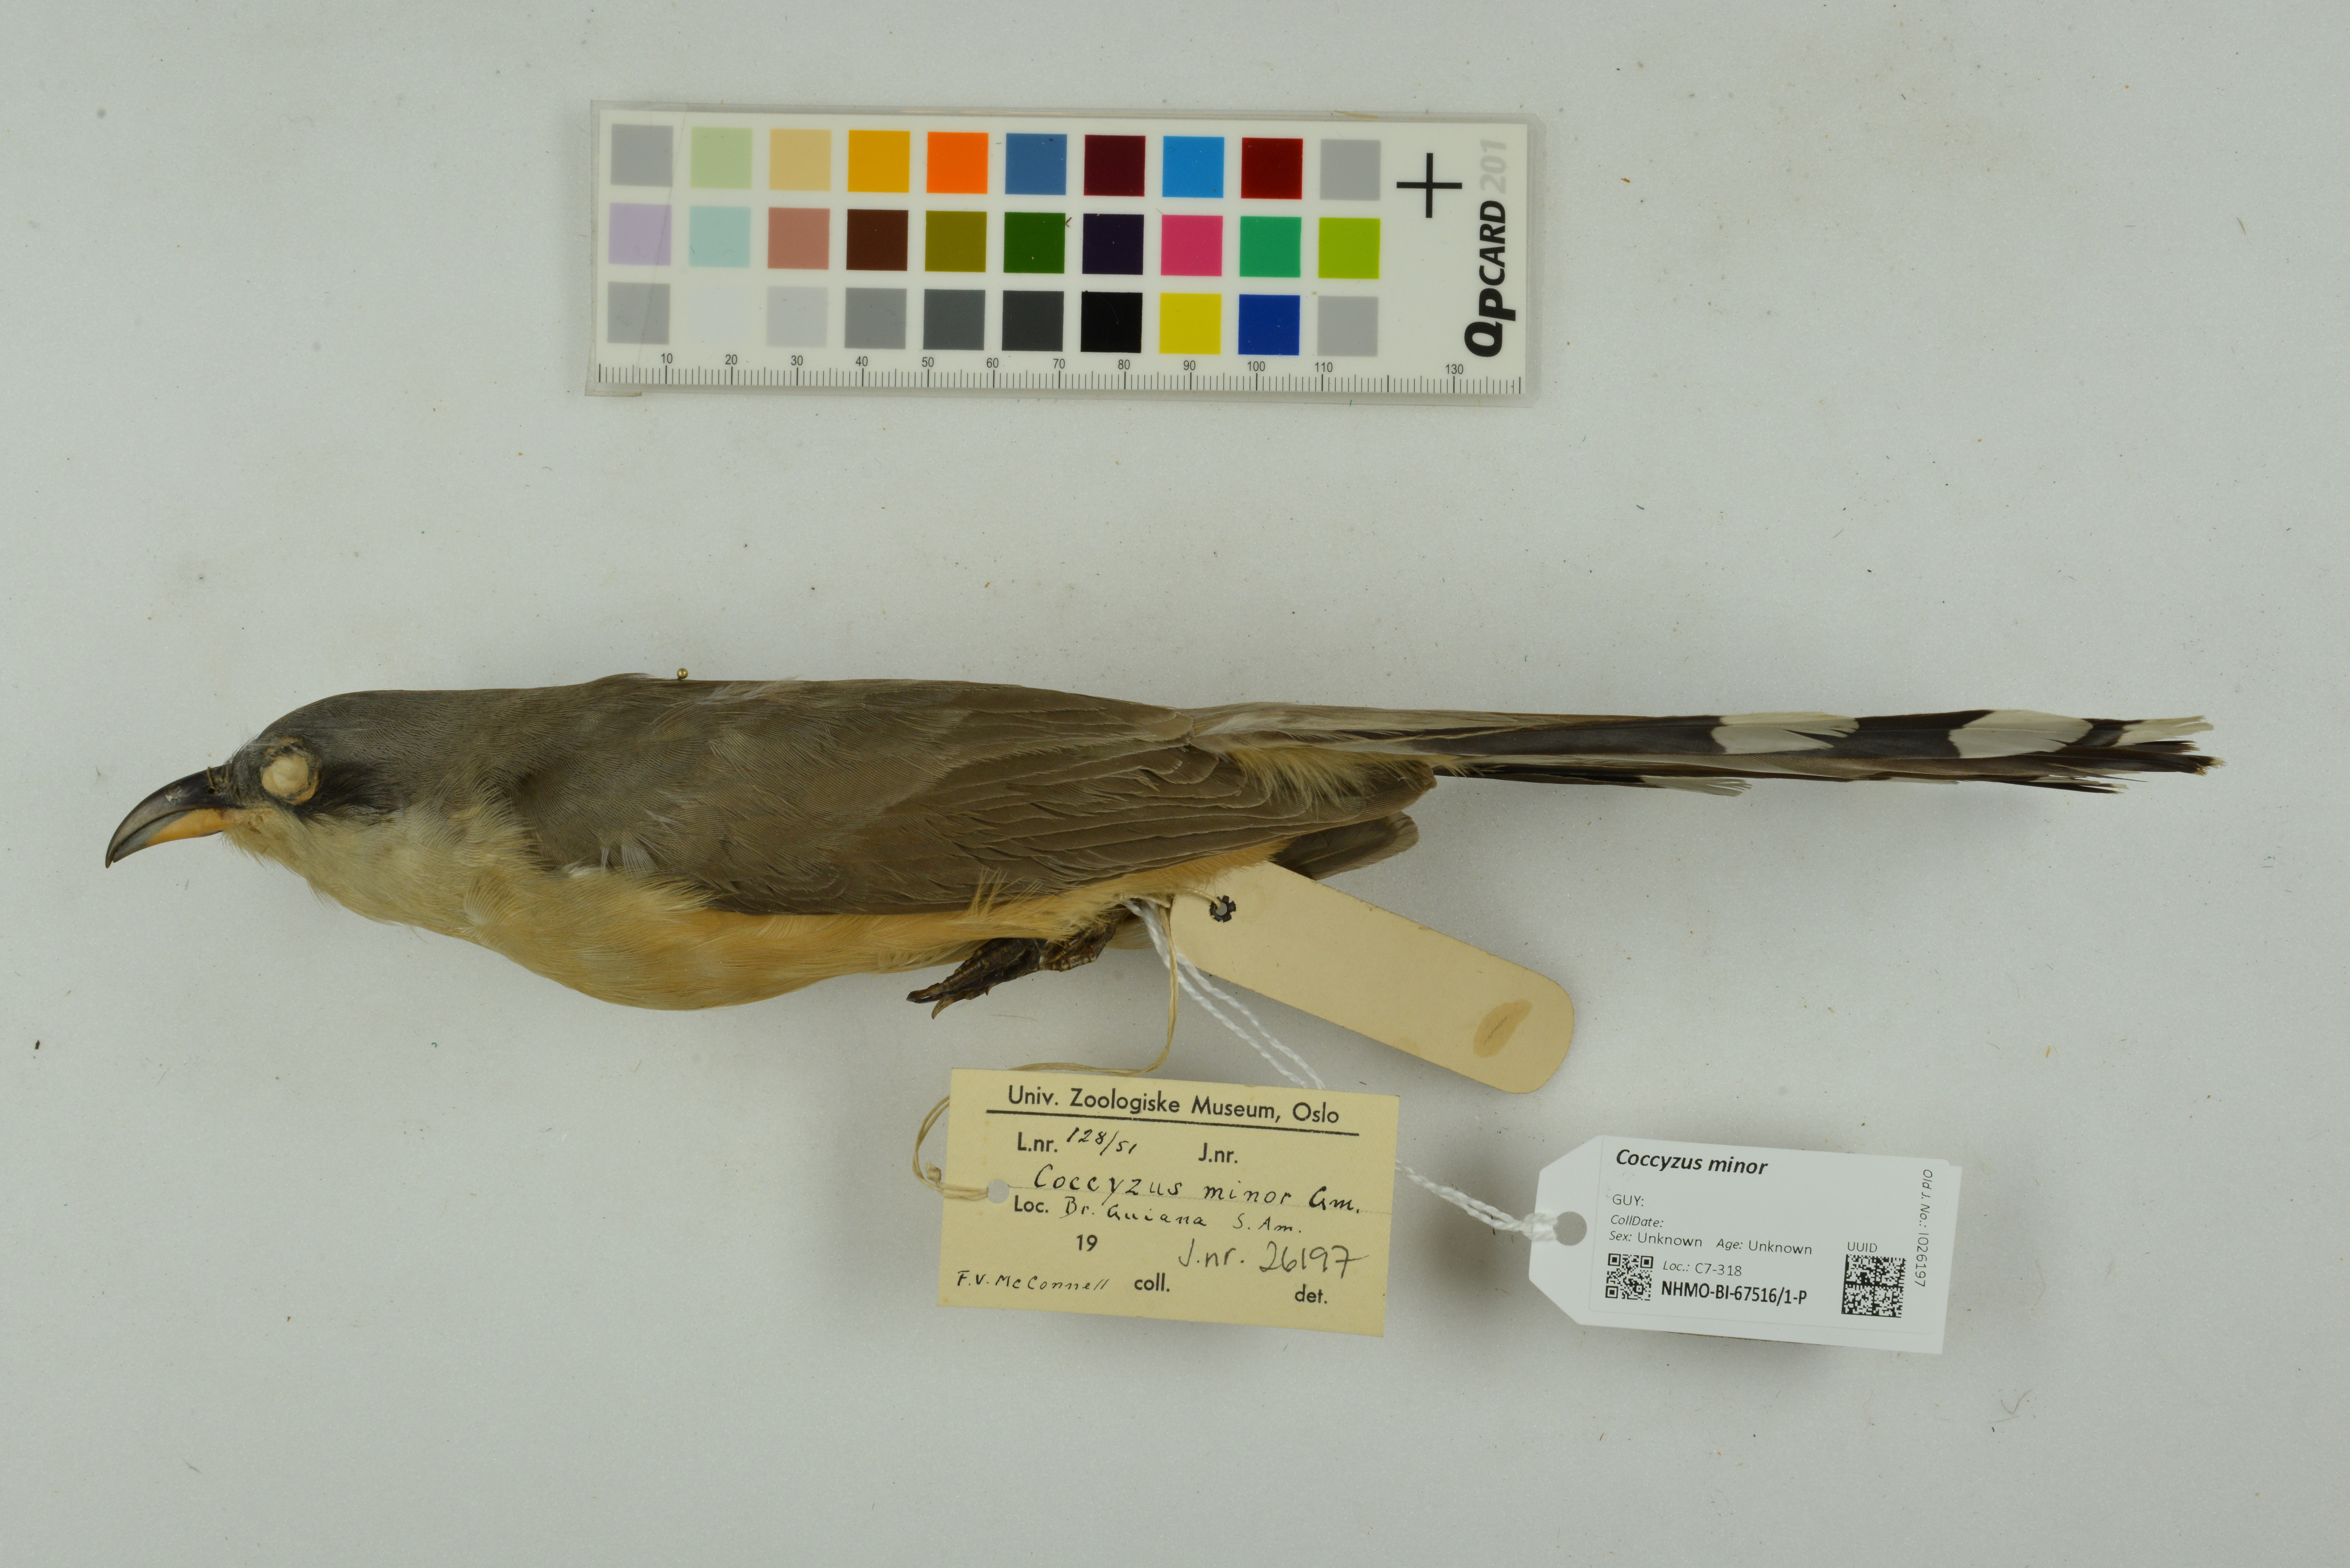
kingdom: Animalia
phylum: Chordata
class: Aves
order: Cuculiformes
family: Cuculidae
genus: Coccyzus
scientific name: Coccyzus minor
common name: Mangrove cuckoo
